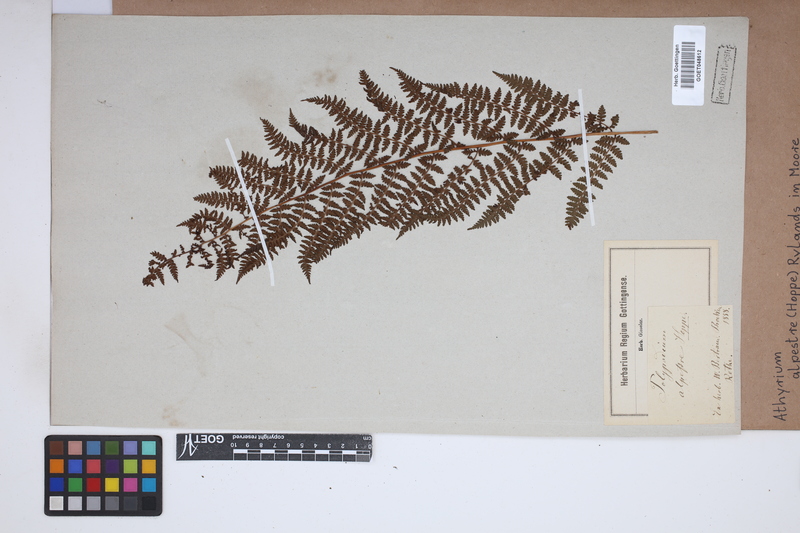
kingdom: Plantae
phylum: Tracheophyta
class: Polypodiopsida
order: Polypodiales
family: Athyriaceae
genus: Pseudathyrium
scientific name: Pseudathyrium alpestre
